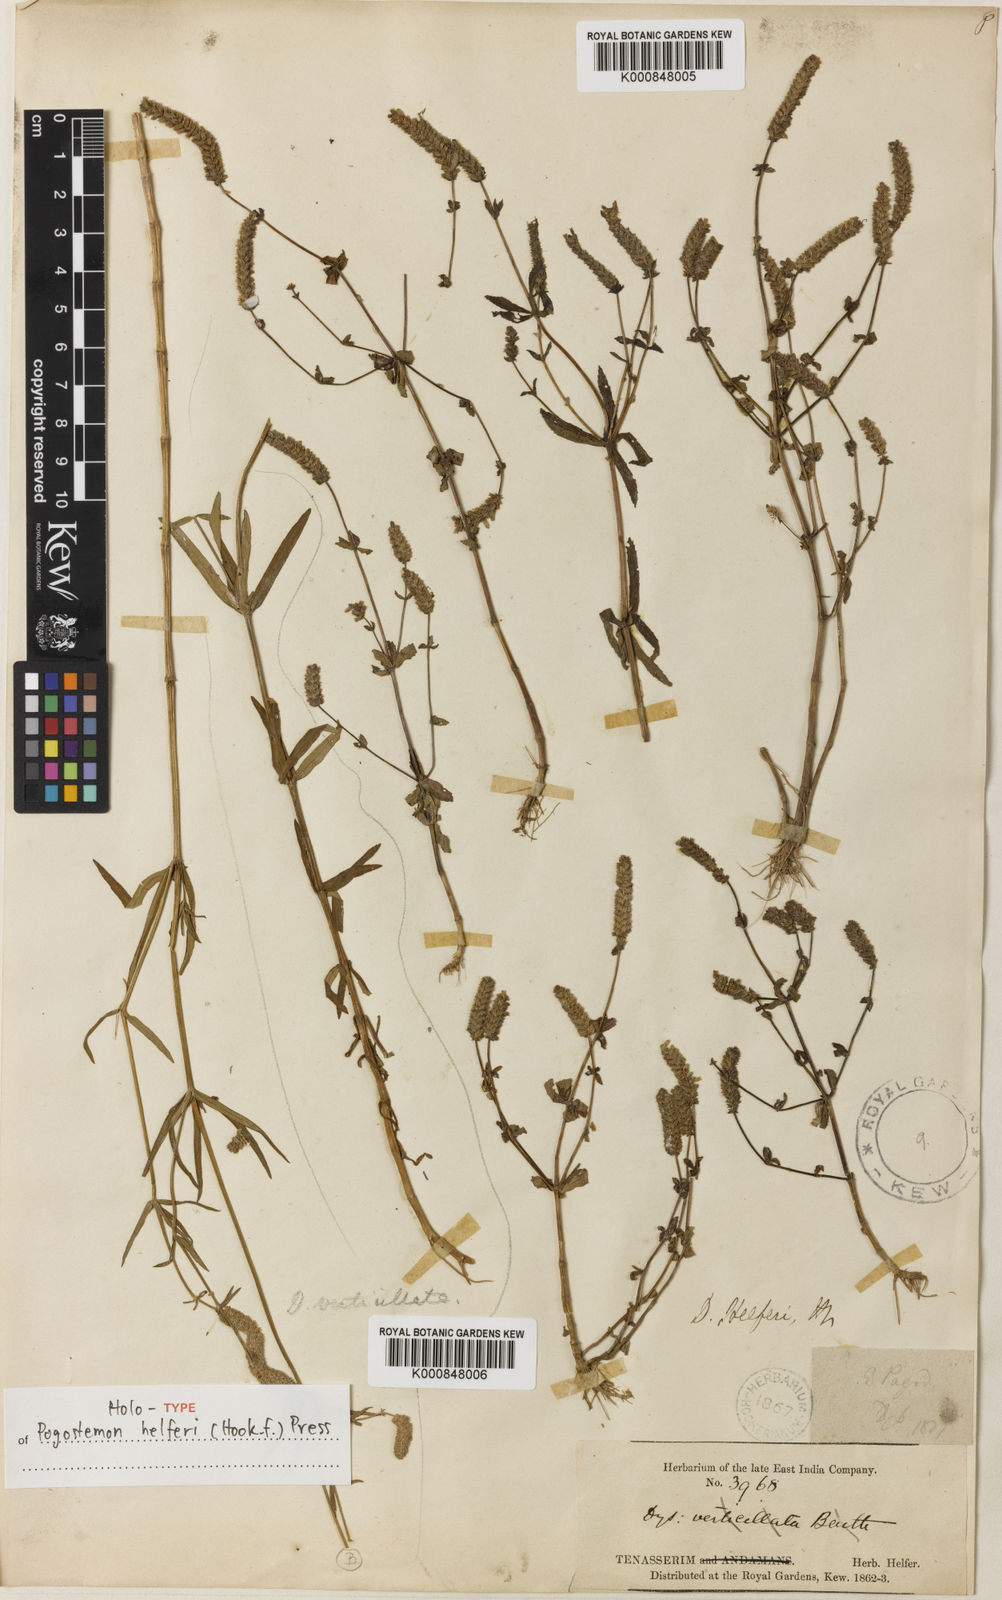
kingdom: Plantae
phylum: Tracheophyta
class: Magnoliopsida
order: Lamiales
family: Lamiaceae
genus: Pogostemon
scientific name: Pogostemon helferi
